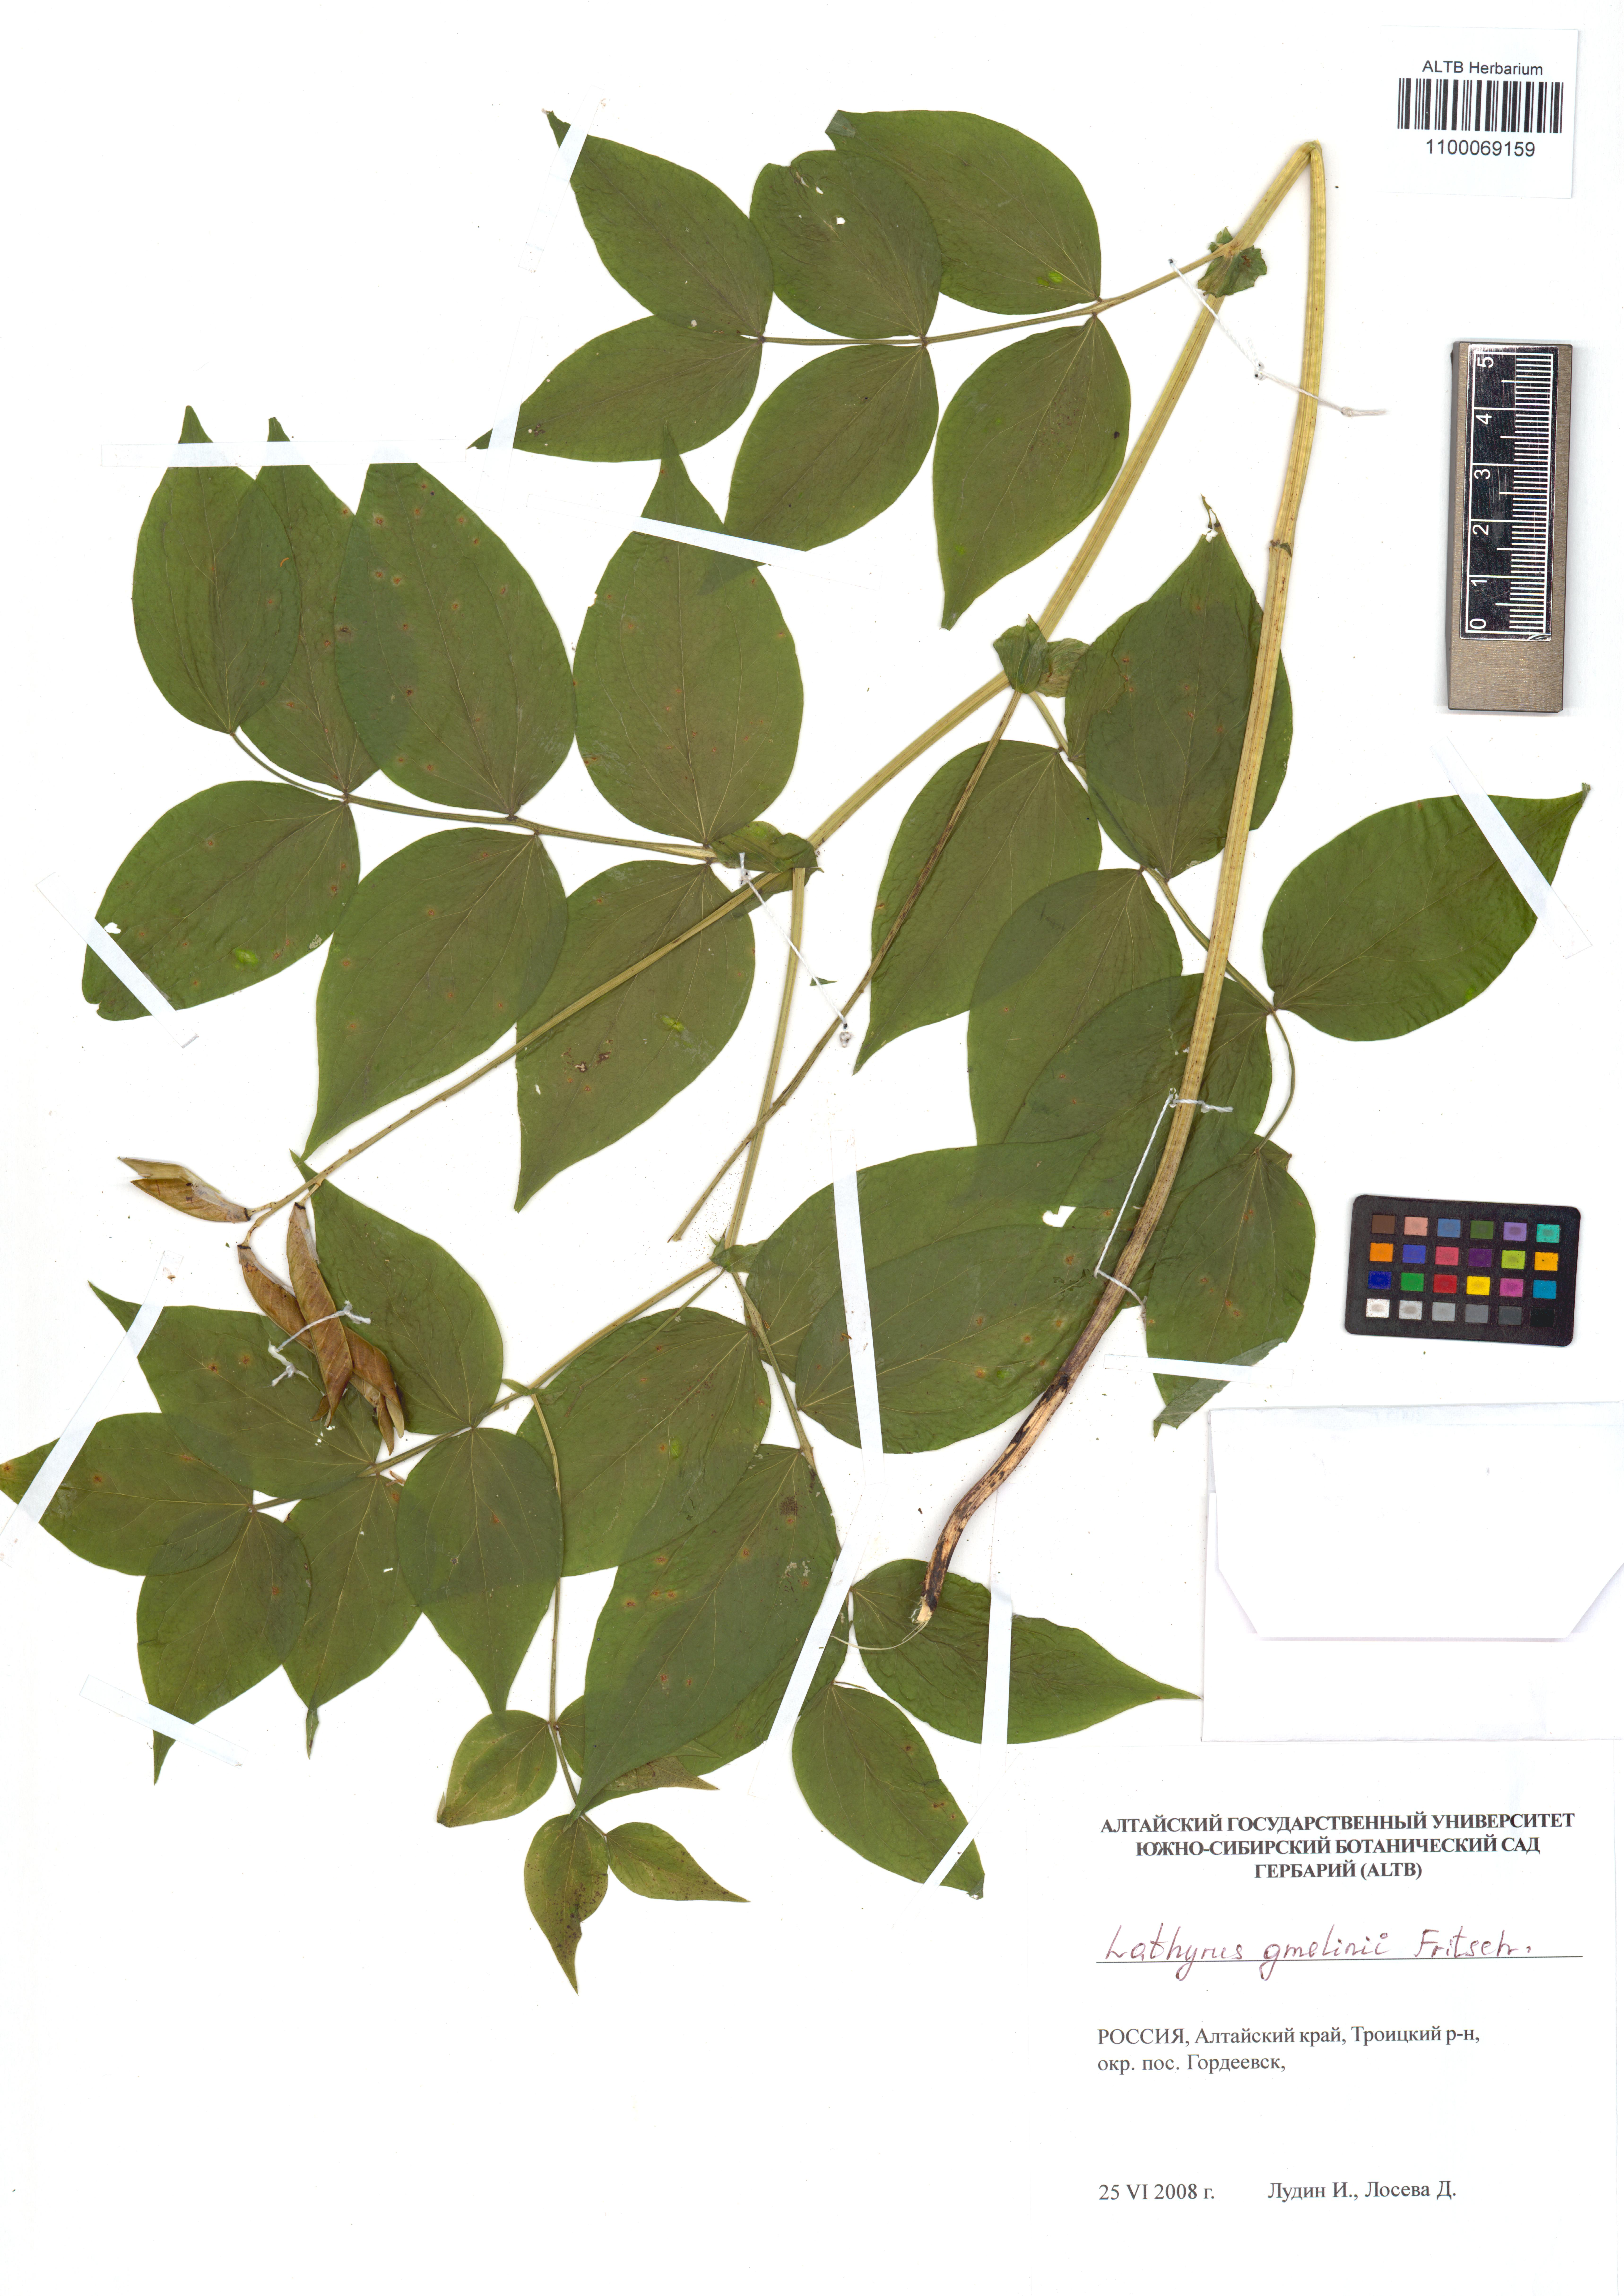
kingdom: Plantae
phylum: Tracheophyta
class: Magnoliopsida
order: Fabales
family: Fabaceae
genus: Lathyrus
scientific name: Lathyrus gmelinii
